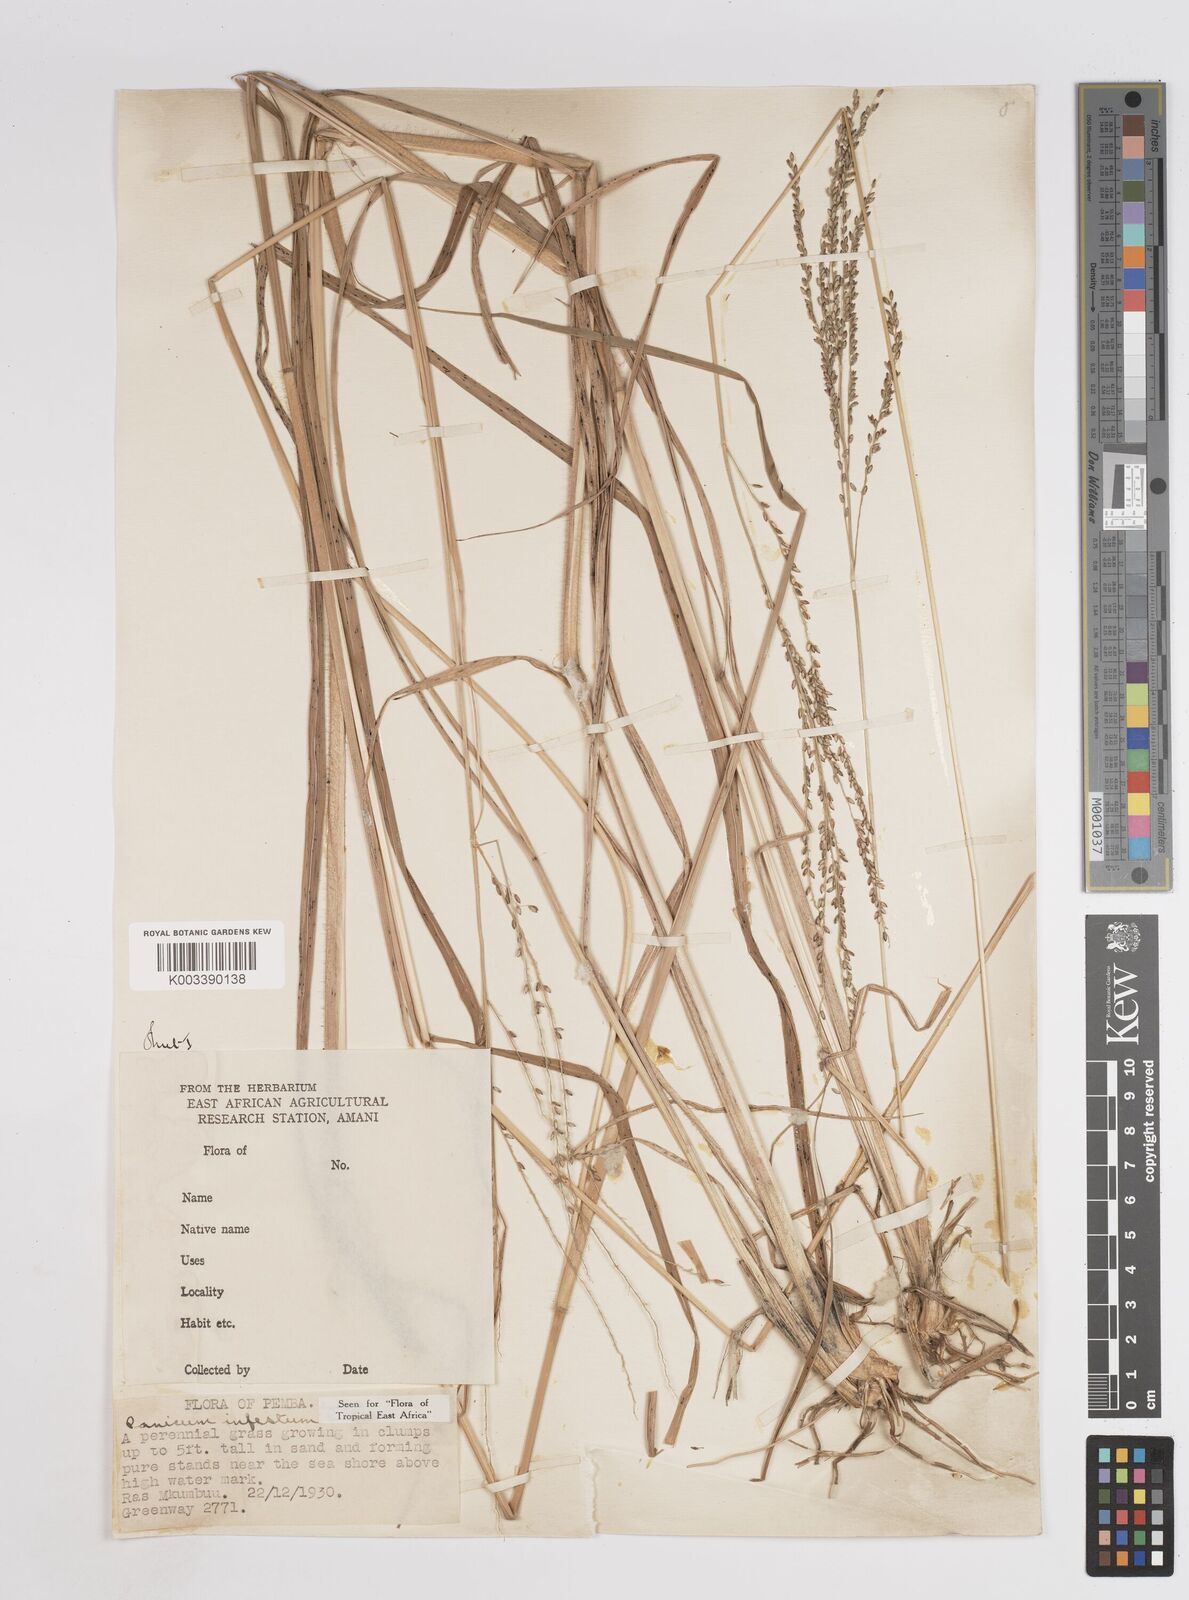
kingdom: Plantae
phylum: Tracheophyta
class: Liliopsida
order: Poales
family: Poaceae
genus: Megathyrsus
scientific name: Megathyrsus infestus
